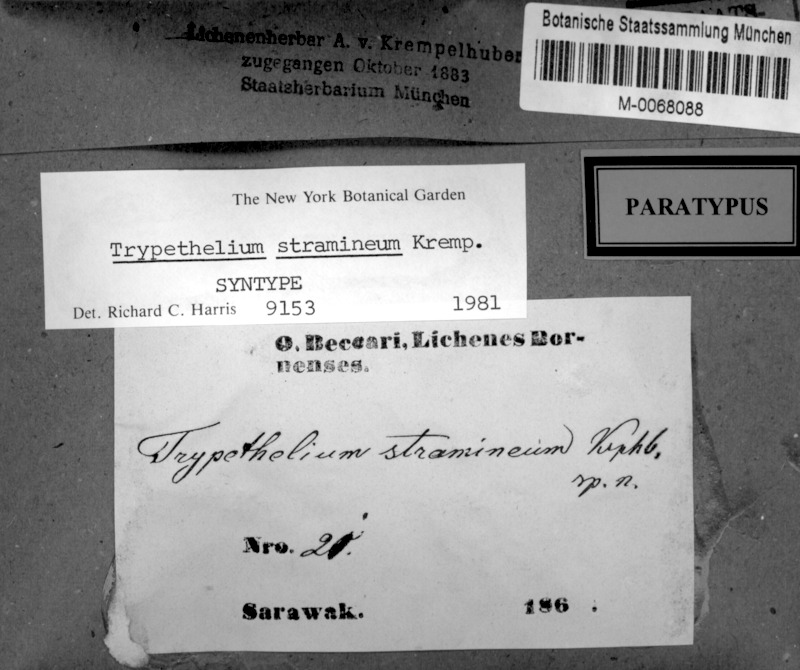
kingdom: Fungi
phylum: Ascomycota
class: Dothideomycetes
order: Trypetheliales
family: Trypetheliaceae
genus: Trypethelium
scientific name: Trypethelium stramineum
